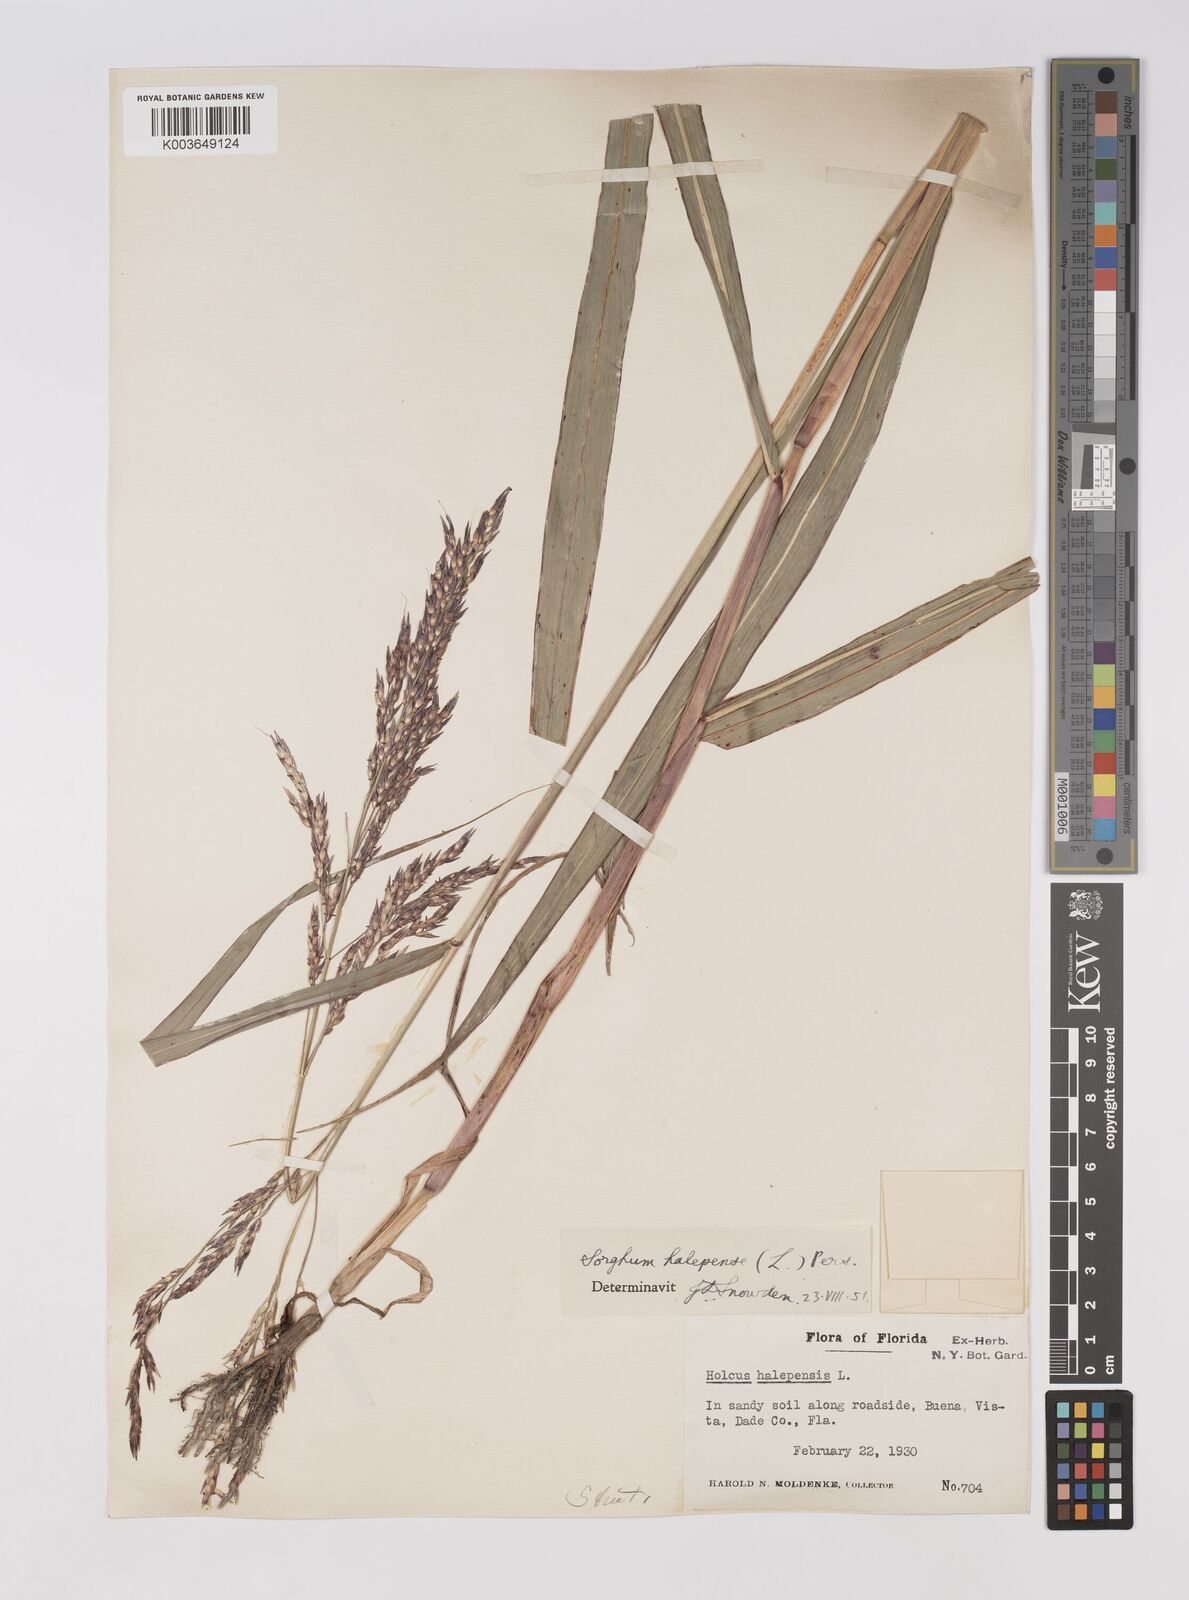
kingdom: Plantae
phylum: Tracheophyta
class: Liliopsida
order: Poales
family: Poaceae
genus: Sorghum
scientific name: Sorghum halepense
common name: Johnson-grass
